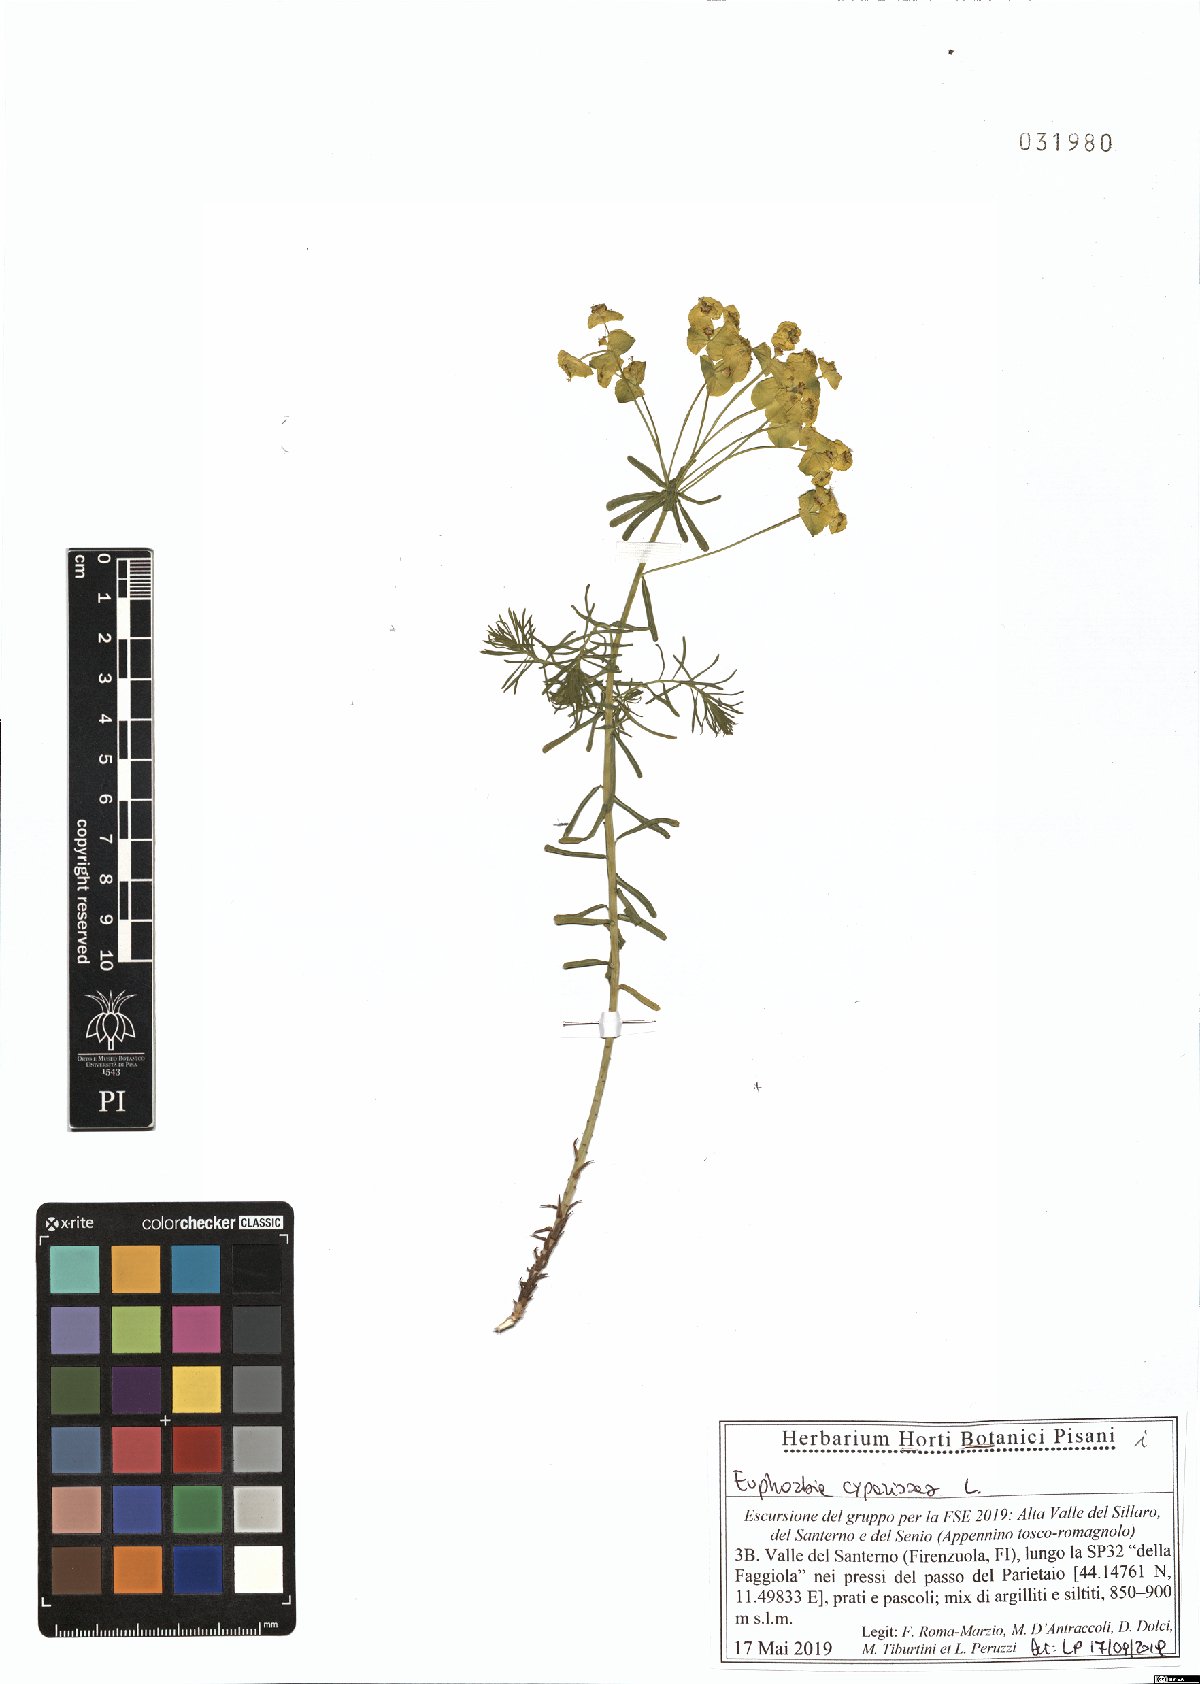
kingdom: Plantae
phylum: Tracheophyta
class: Magnoliopsida
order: Malpighiales
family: Euphorbiaceae
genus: Euphorbia
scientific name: Euphorbia cyparissias
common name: Cypress spurge
